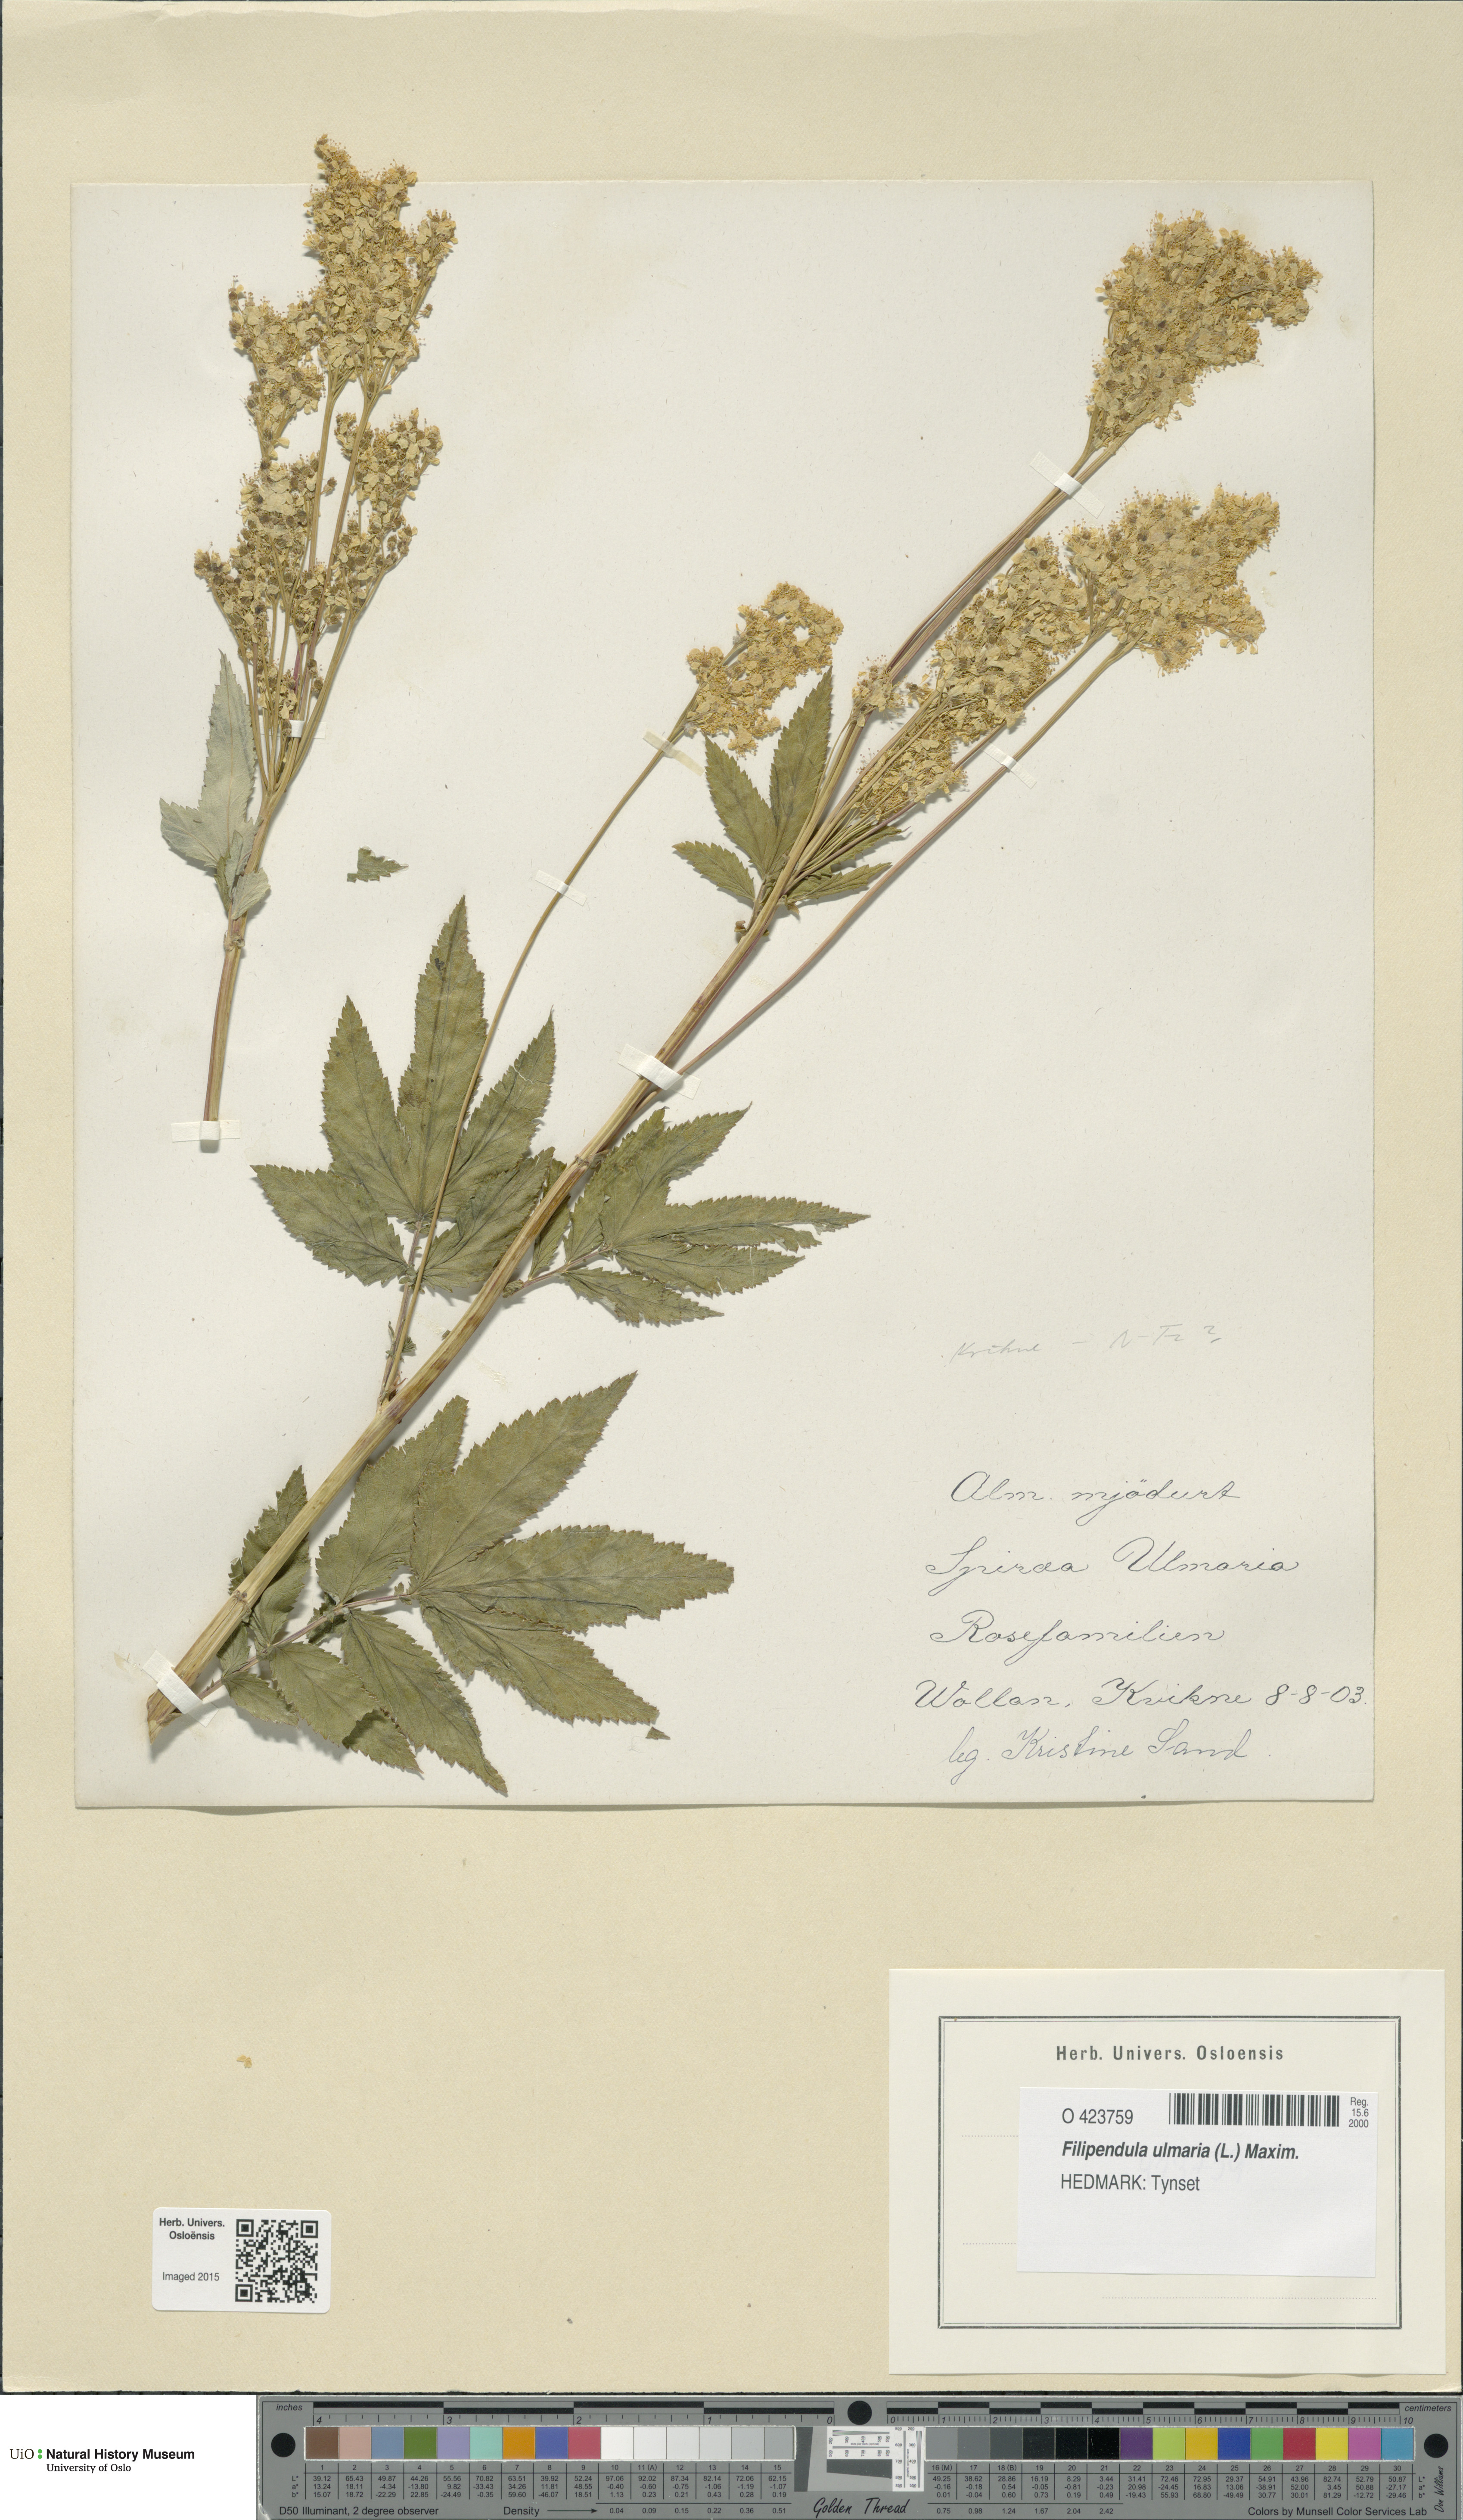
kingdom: Plantae
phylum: Tracheophyta
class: Magnoliopsida
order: Rosales
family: Rosaceae
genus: Filipendula
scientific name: Filipendula ulmaria
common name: Meadowsweet
